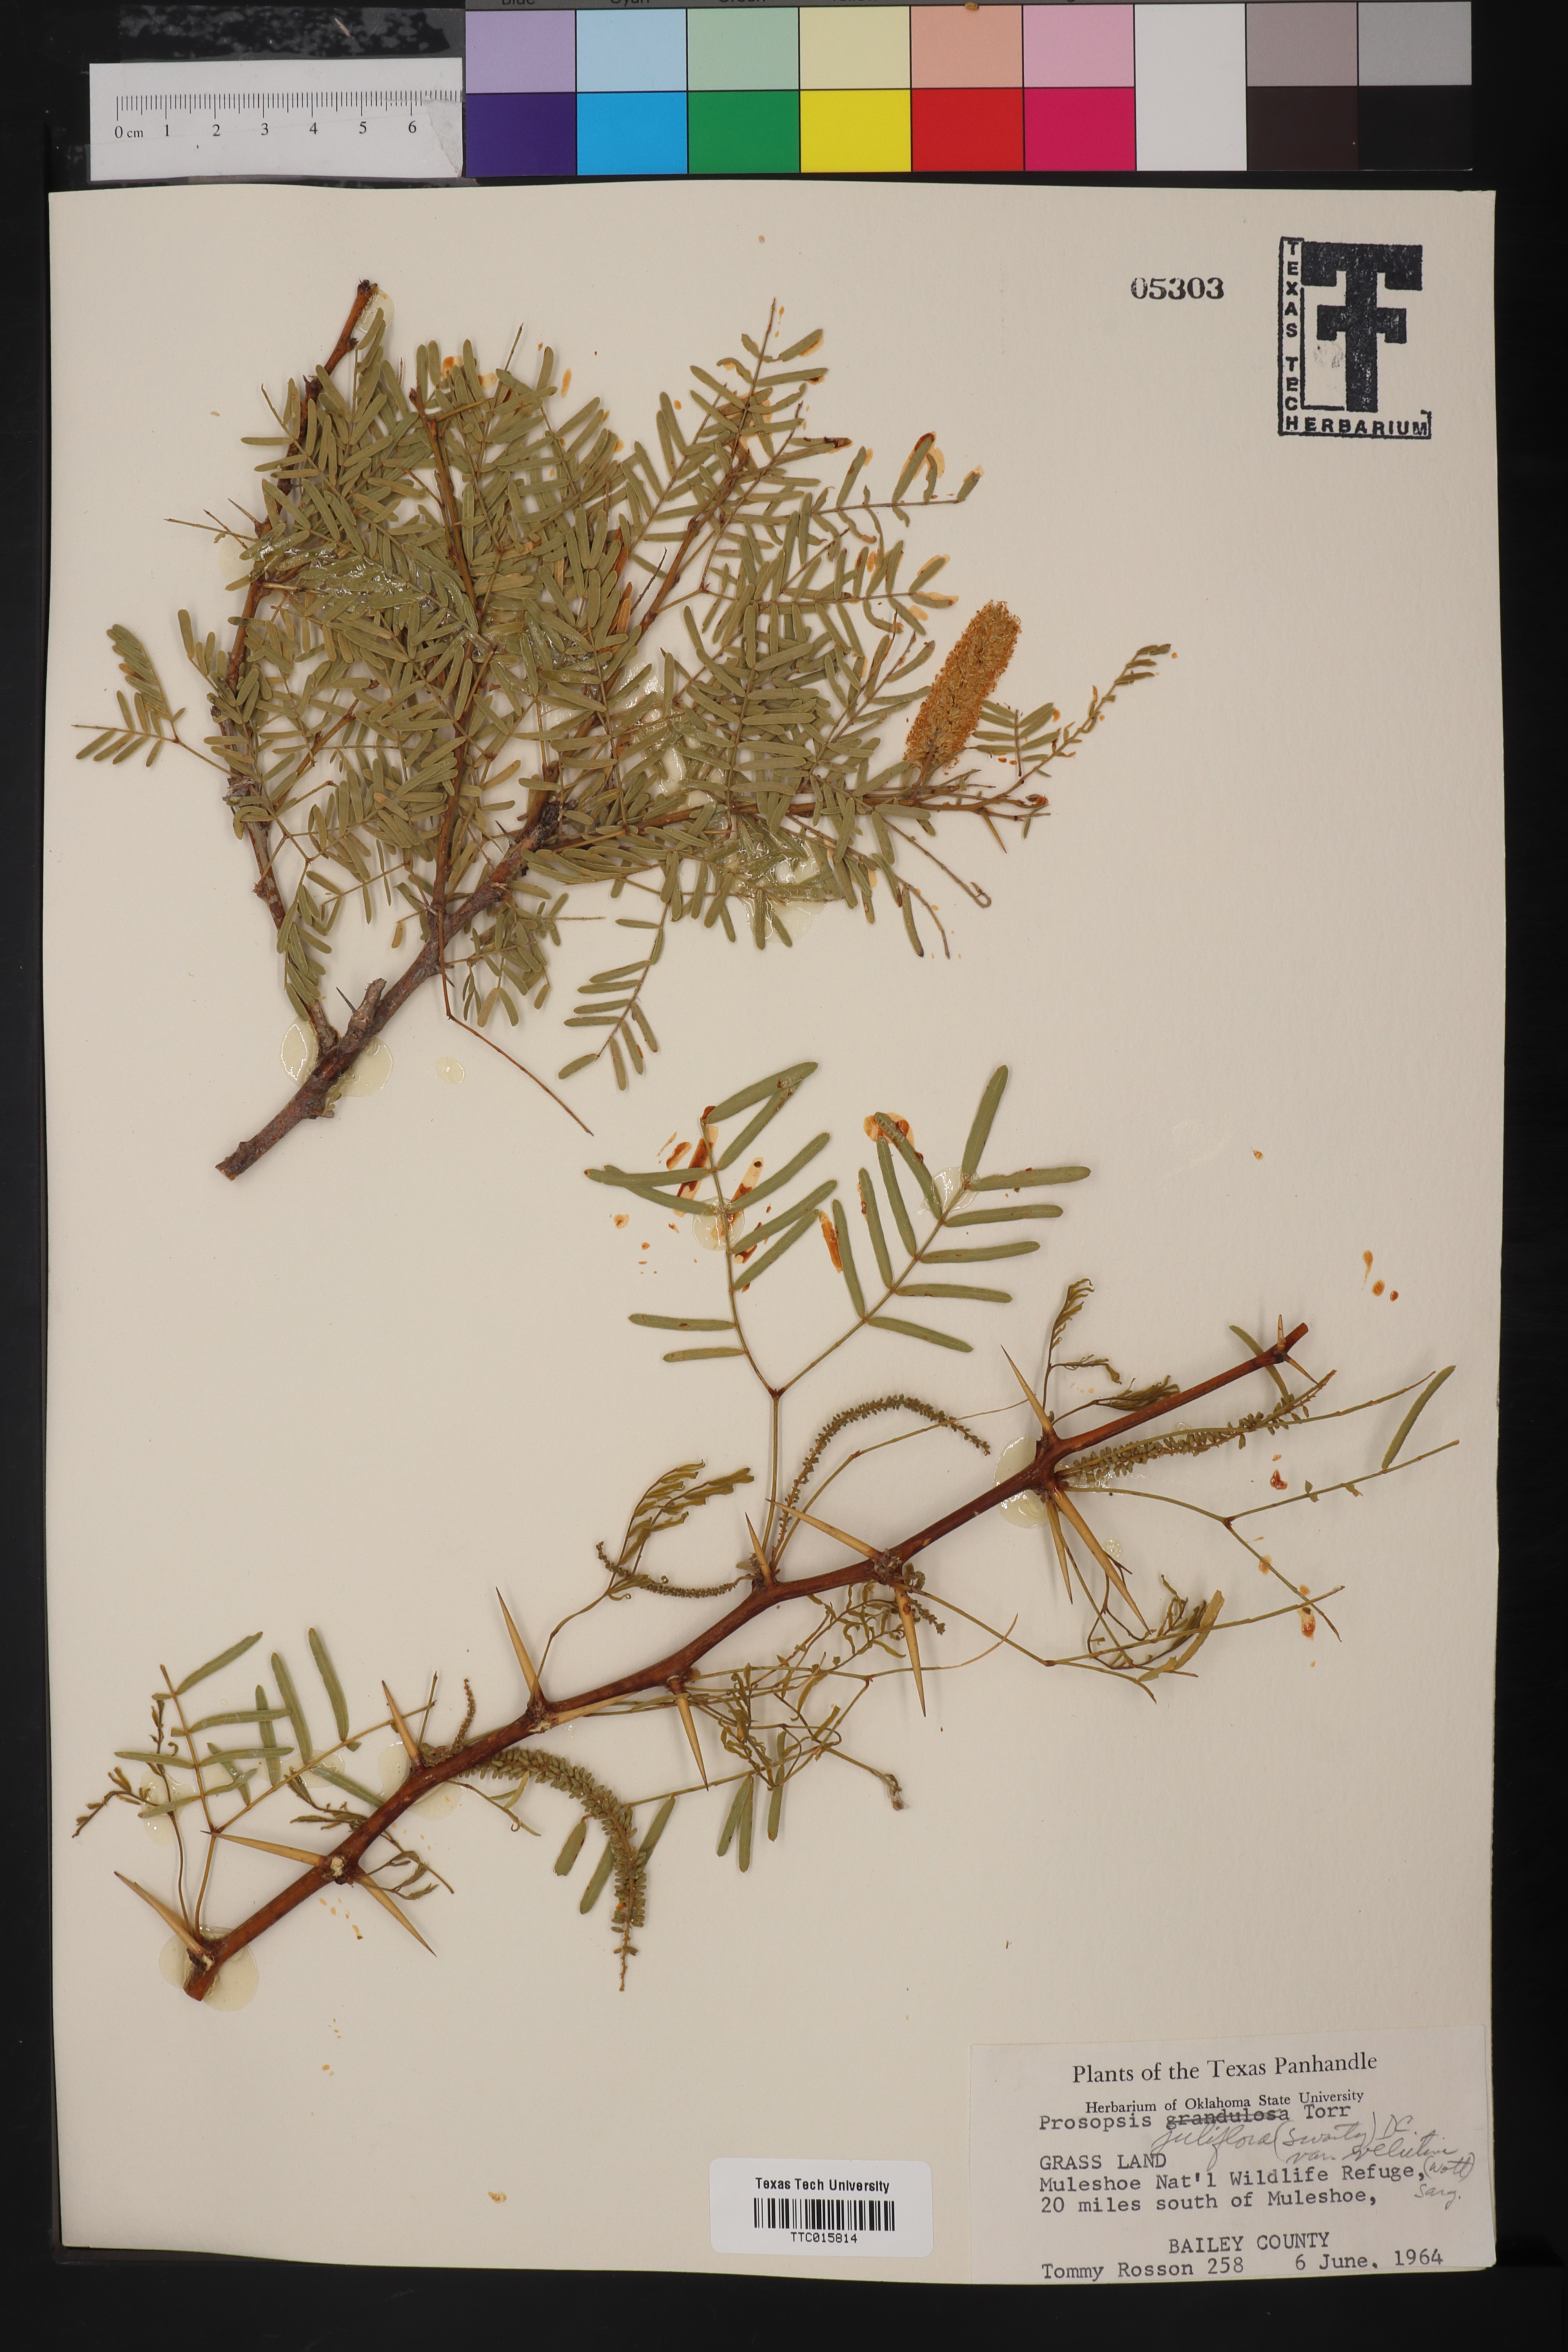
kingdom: Plantae
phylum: Tracheophyta
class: Magnoliopsida
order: Fabales
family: Fabaceae
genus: Prosopis
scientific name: Prosopis velutina
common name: Velvet mesquite
